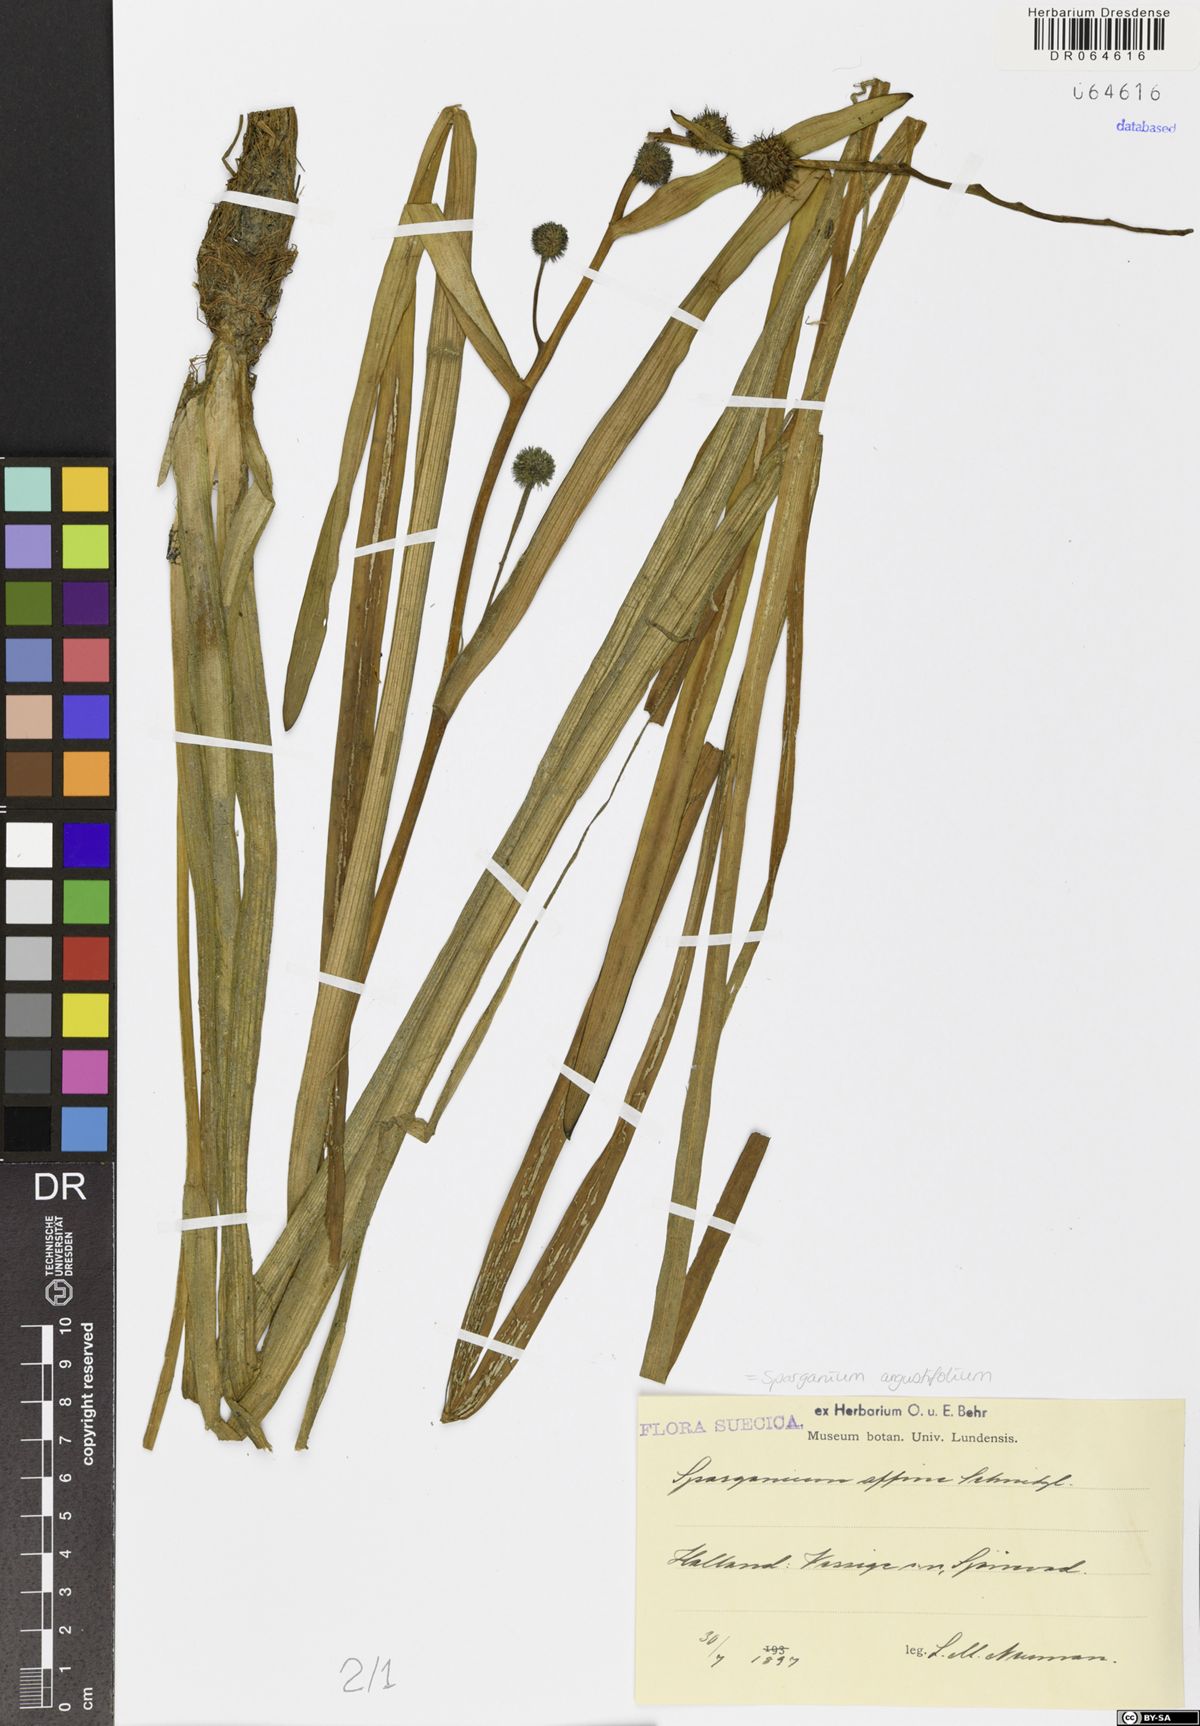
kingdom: Plantae
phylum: Tracheophyta
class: Liliopsida
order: Poales
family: Typhaceae
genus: Sparganium
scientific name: Sparganium angustifolium
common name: Floating bur-reed
